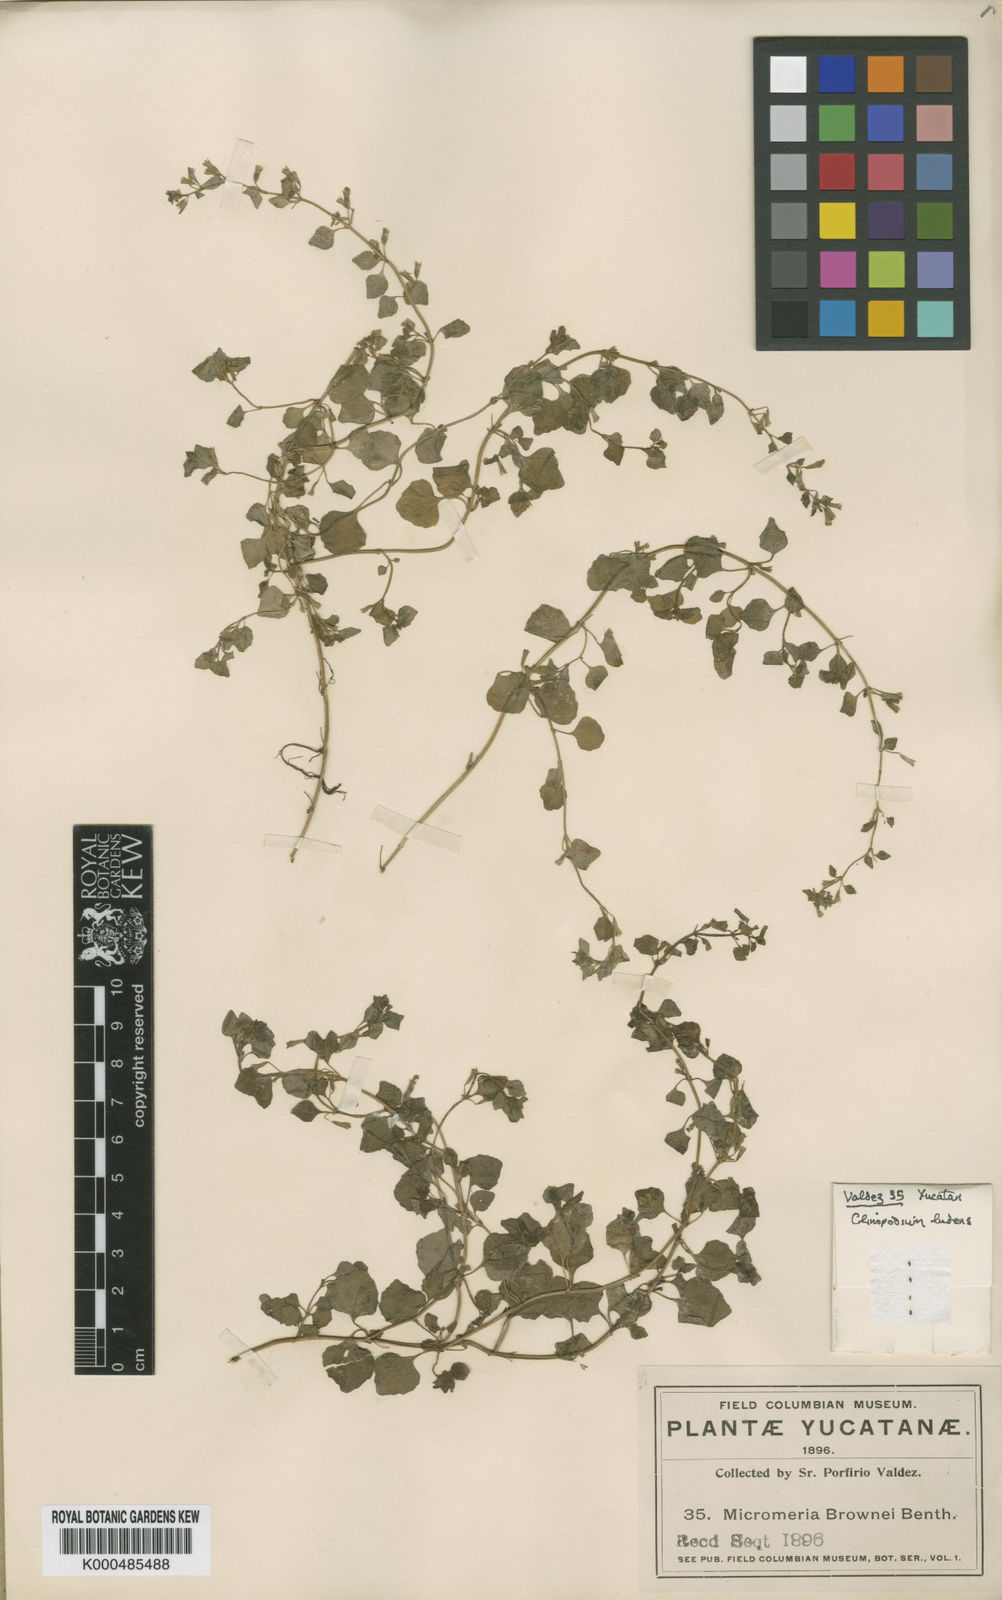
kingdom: Plantae
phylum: Tracheophyta
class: Magnoliopsida
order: Lamiales
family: Lamiaceae
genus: Clinopodium
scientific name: Clinopodium ludens
